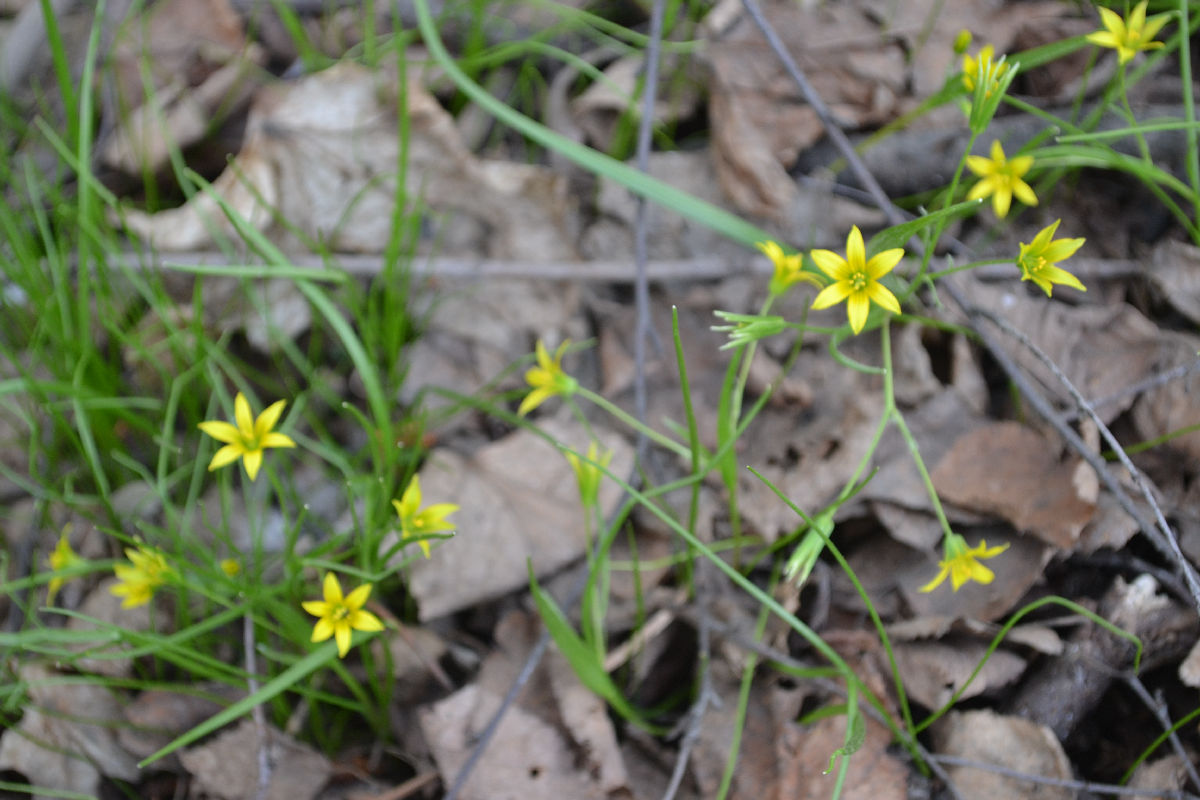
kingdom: Plantae
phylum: Tracheophyta
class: Liliopsida
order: Liliales
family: Liliaceae
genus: Gagea
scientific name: Gagea minima
